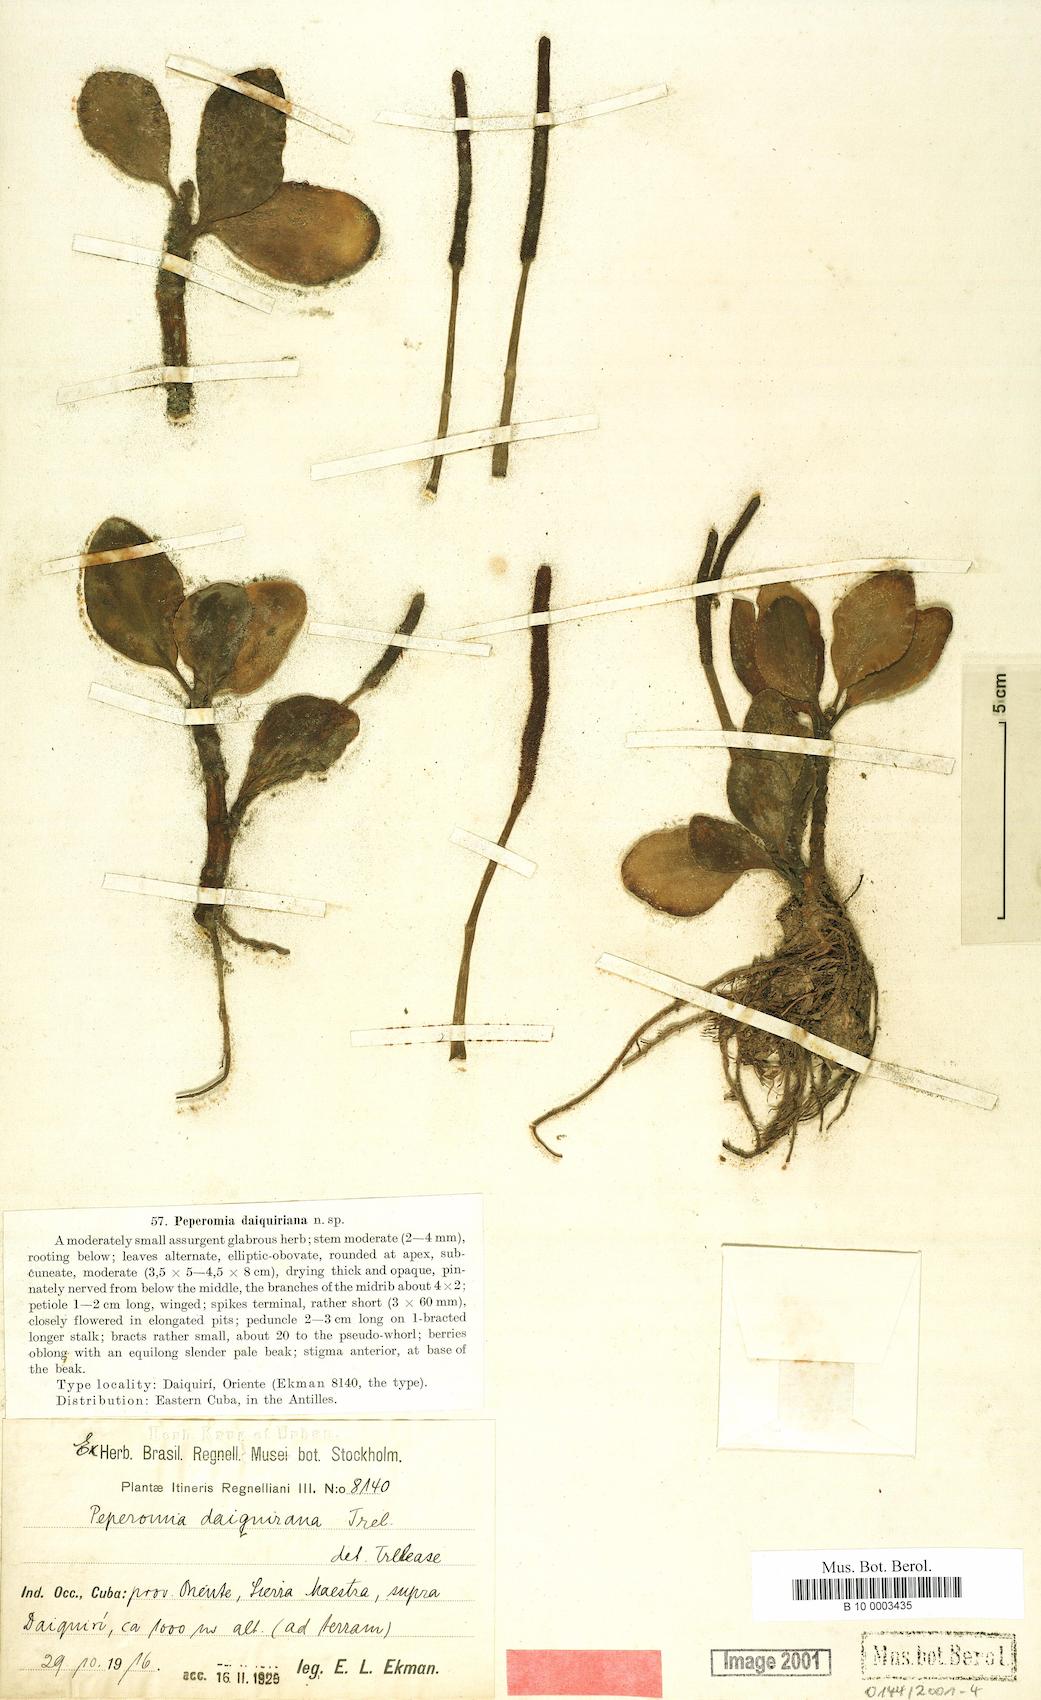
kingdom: Plantae
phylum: Tracheophyta
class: Magnoliopsida
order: Piperales
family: Piperaceae
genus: Peperomia
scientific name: Peperomia obtusifolia
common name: Baby rubberplant
